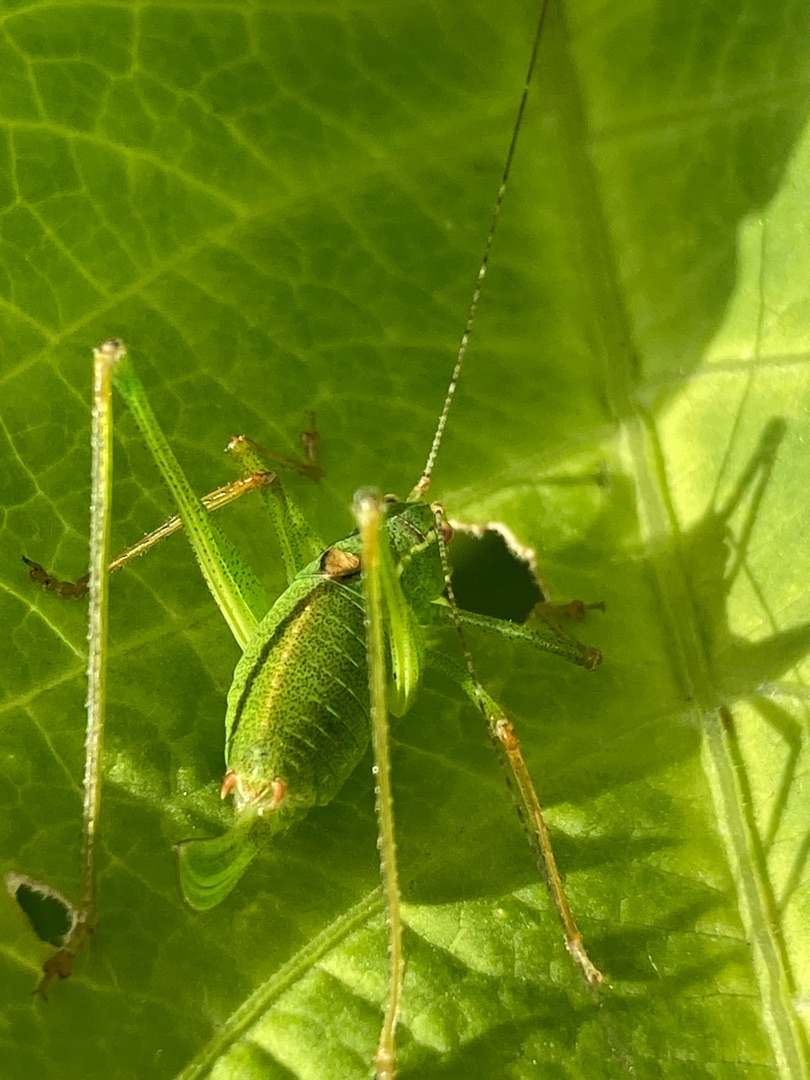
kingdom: Animalia
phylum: Arthropoda
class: Insecta
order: Orthoptera
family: Tettigoniidae
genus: Leptophyes
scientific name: Leptophyes punctatissima
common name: Krumknivgræshoppe
